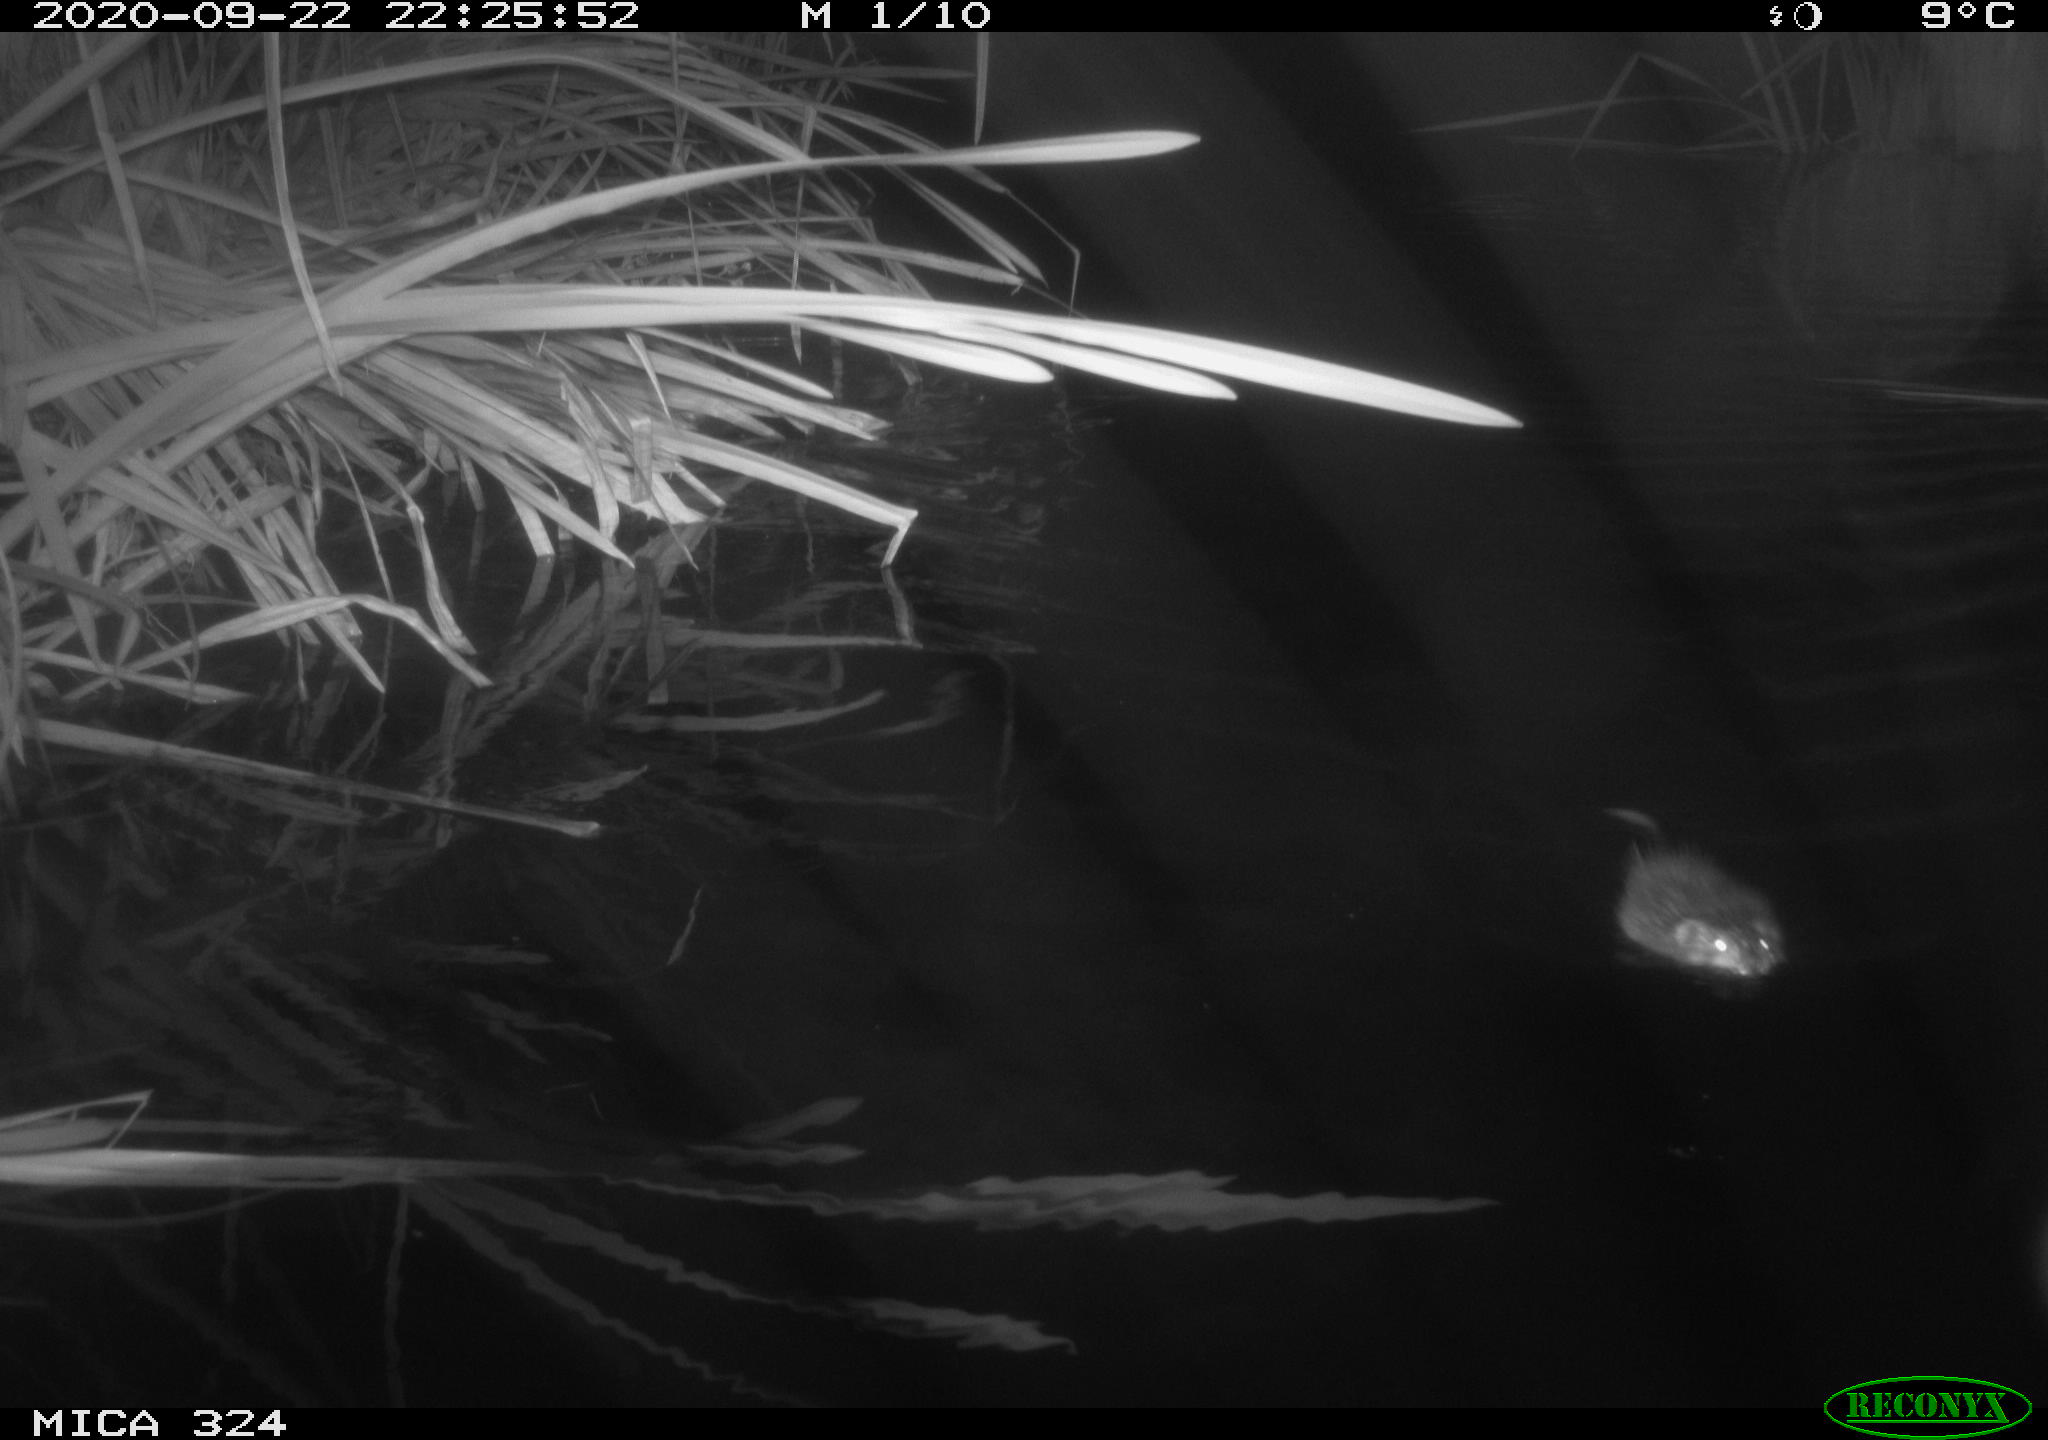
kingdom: Animalia
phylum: Chordata
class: Mammalia
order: Rodentia
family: Cricetidae
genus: Ondatra
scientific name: Ondatra zibethicus
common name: Muskrat
